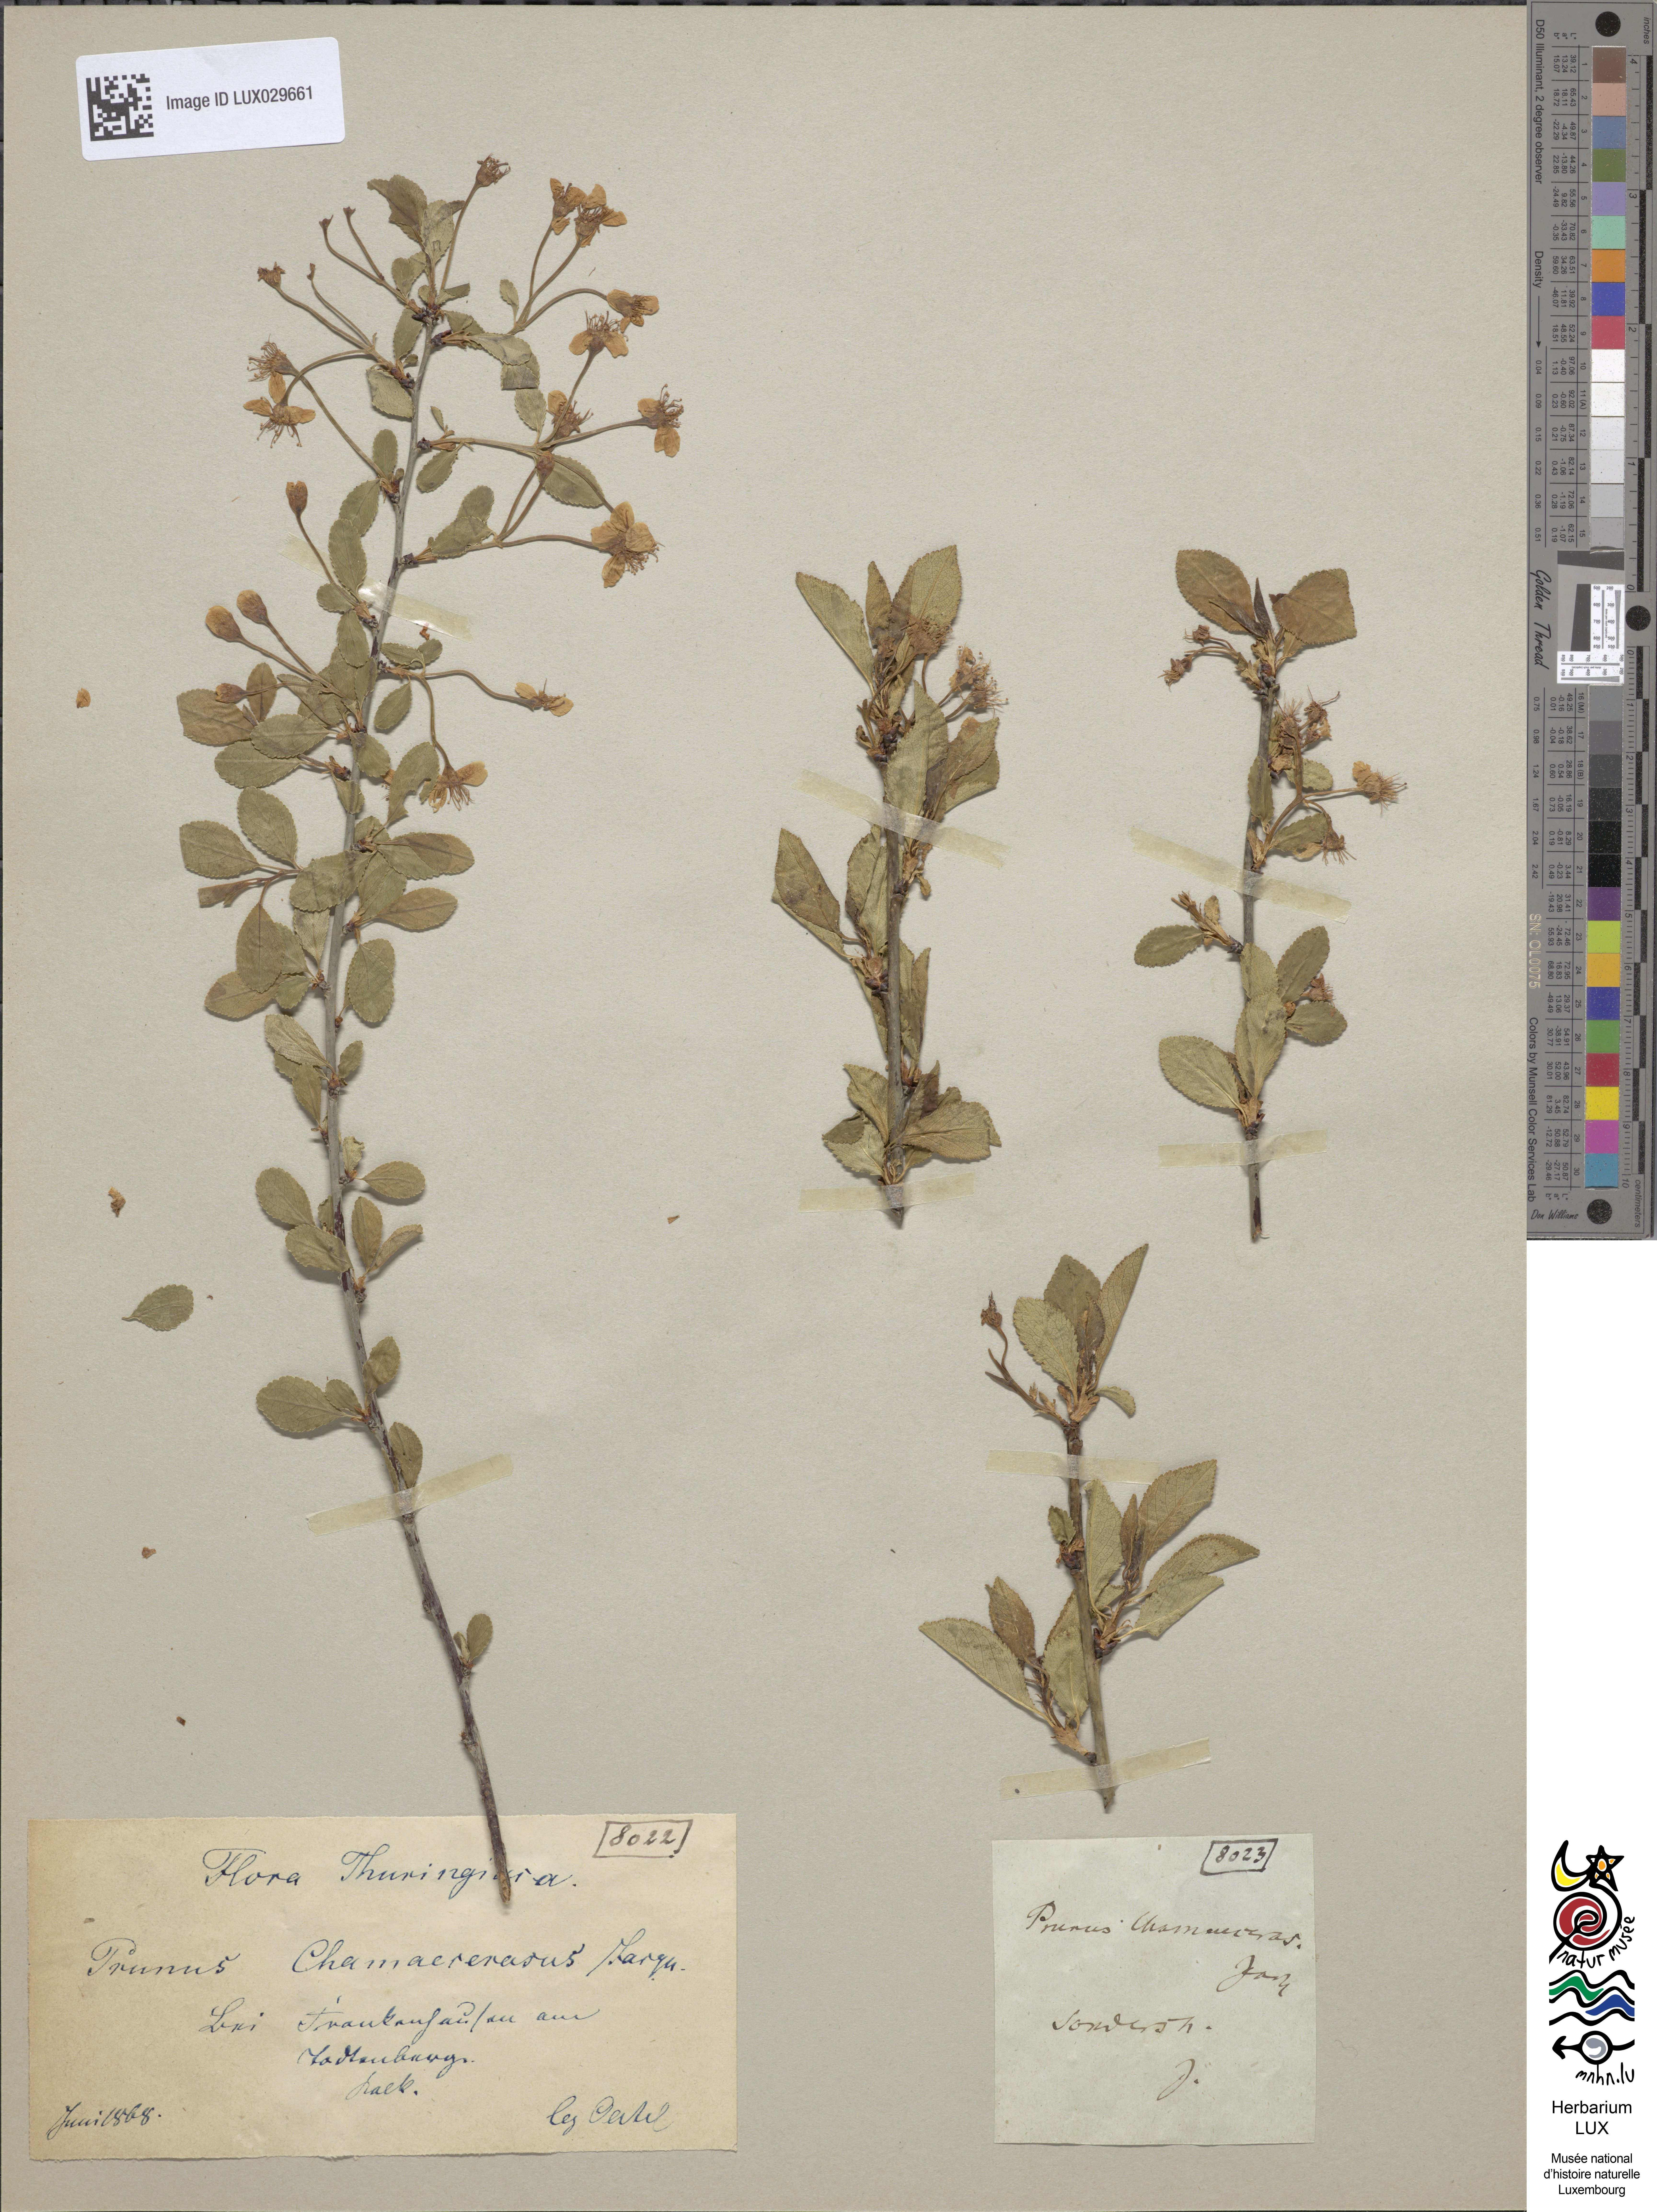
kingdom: Plantae
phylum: Tracheophyta
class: Magnoliopsida
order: Rosales
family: Rosaceae
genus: Prunus
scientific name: Prunus fruticosa
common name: European dwarf cherry
